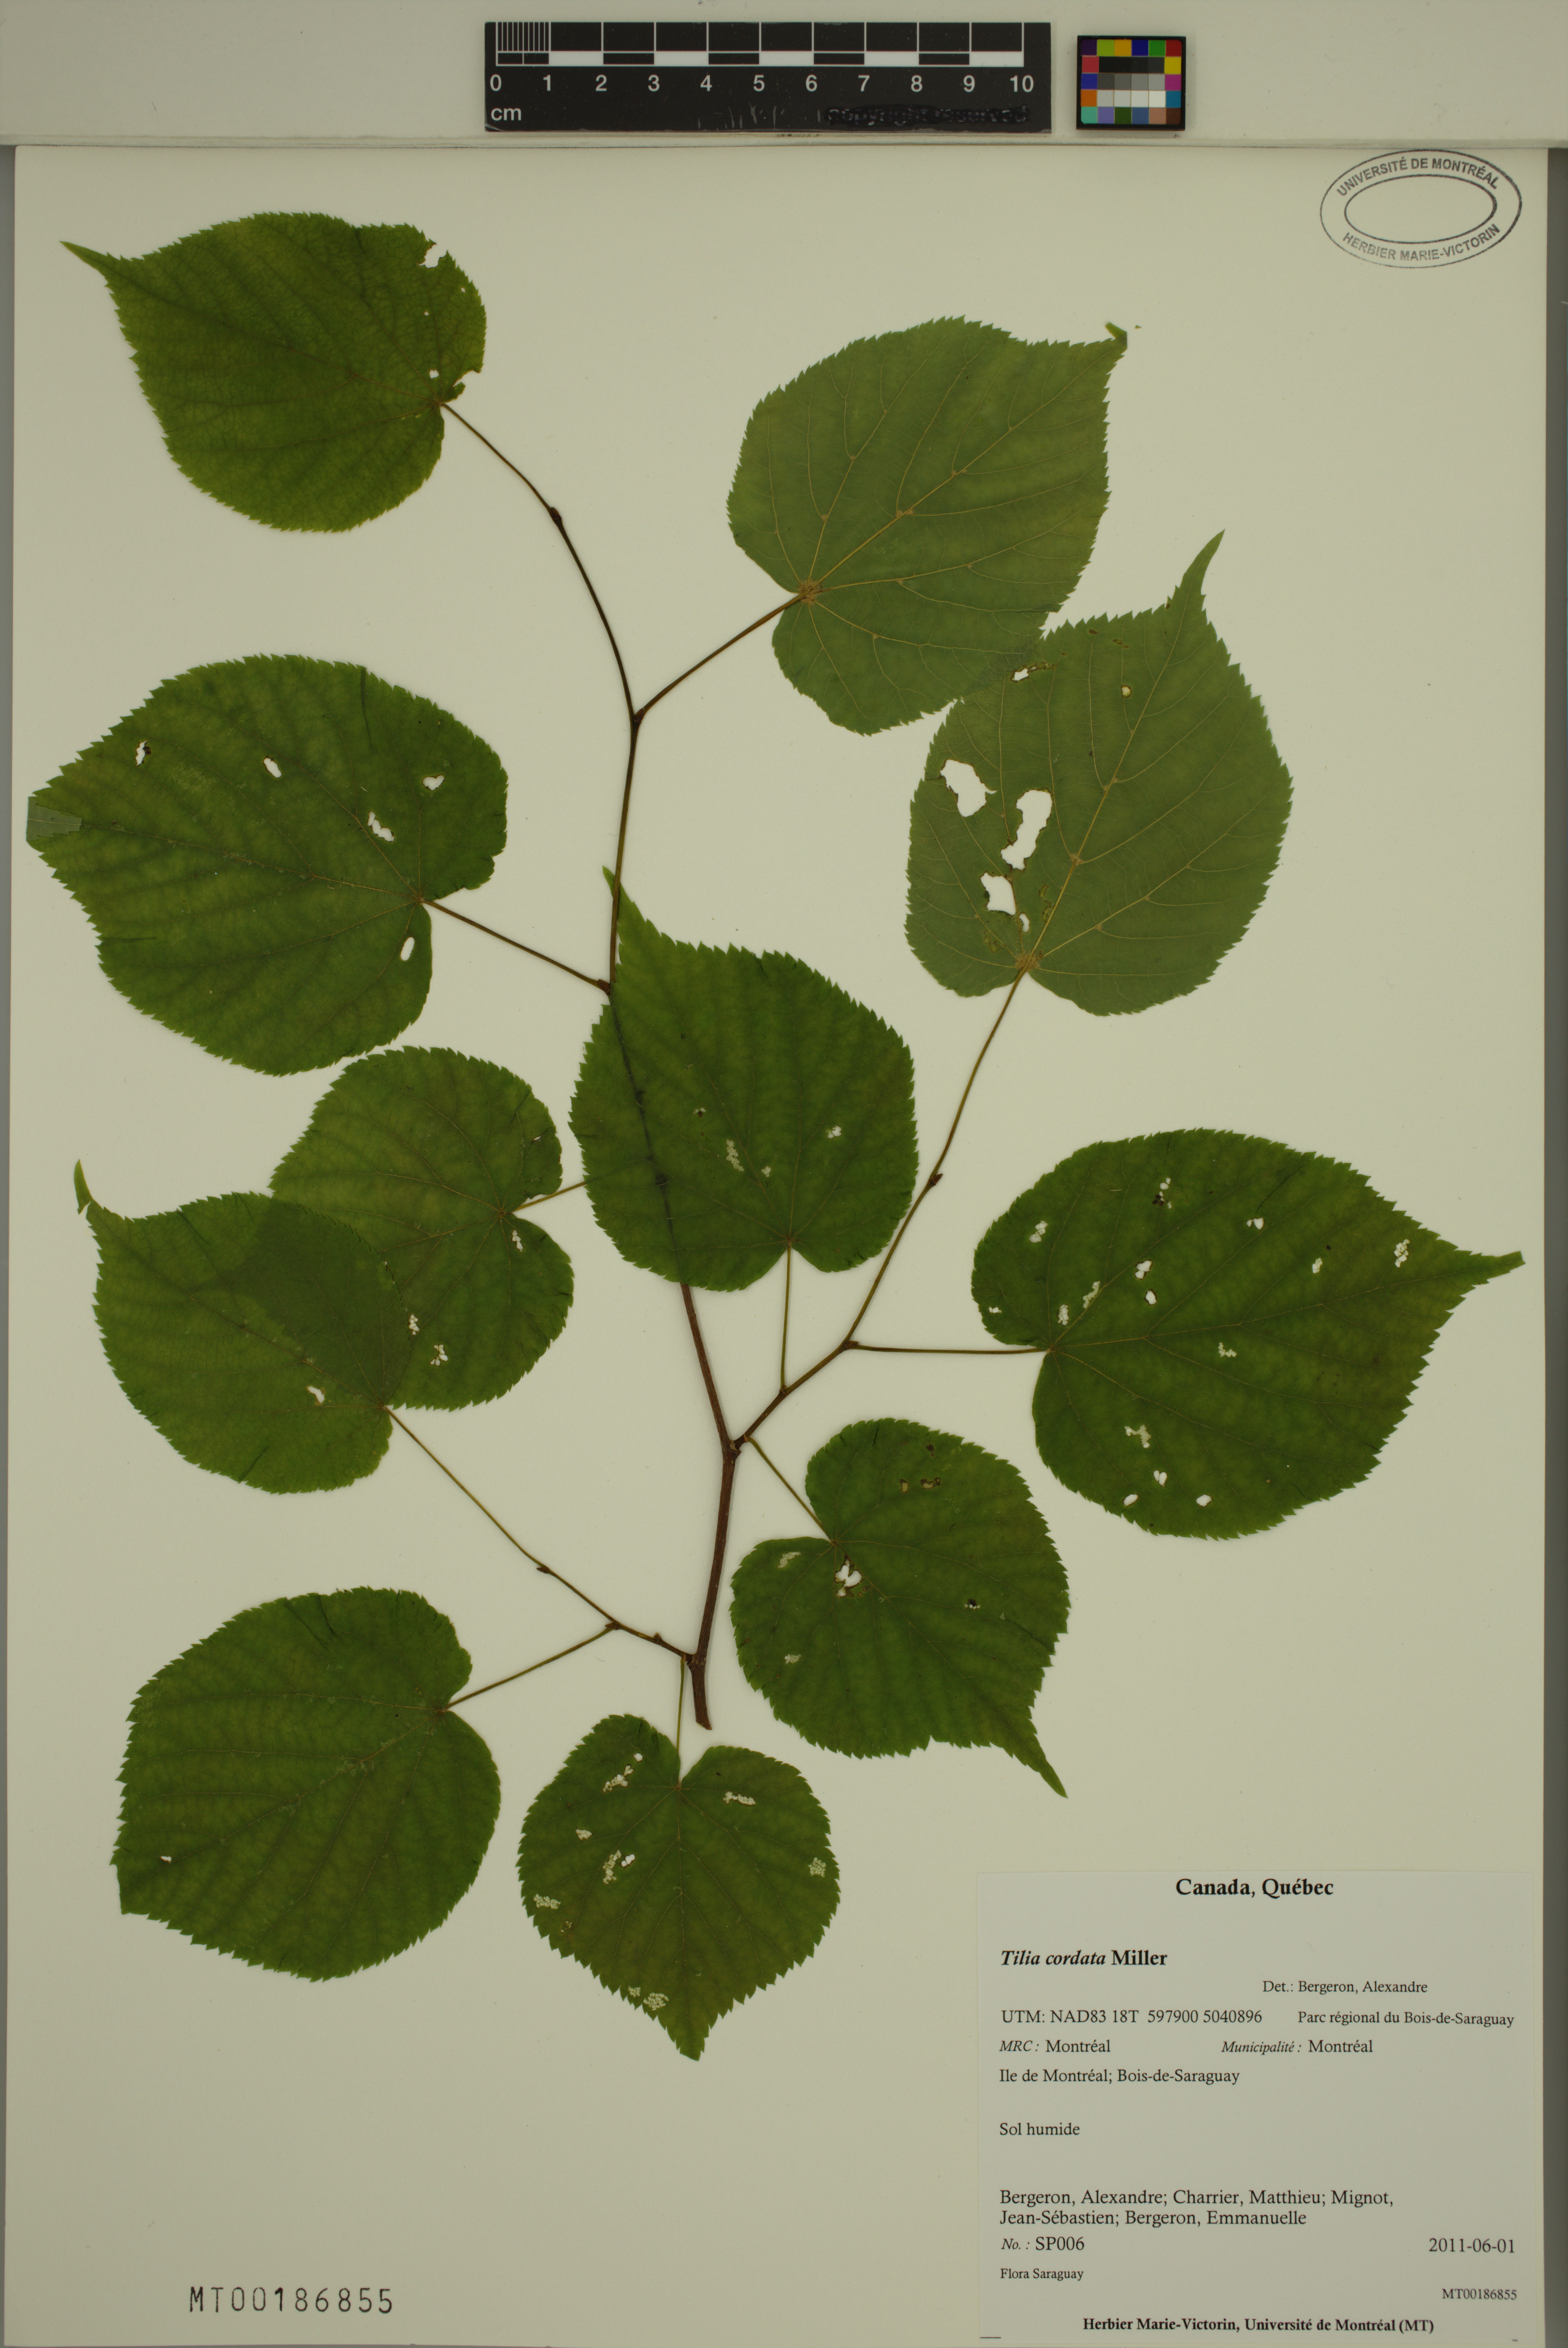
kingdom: Plantae
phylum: Tracheophyta
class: Magnoliopsida
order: Malvales
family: Malvaceae
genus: Tilia
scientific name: Tilia cordata
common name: Small-leaved lime
